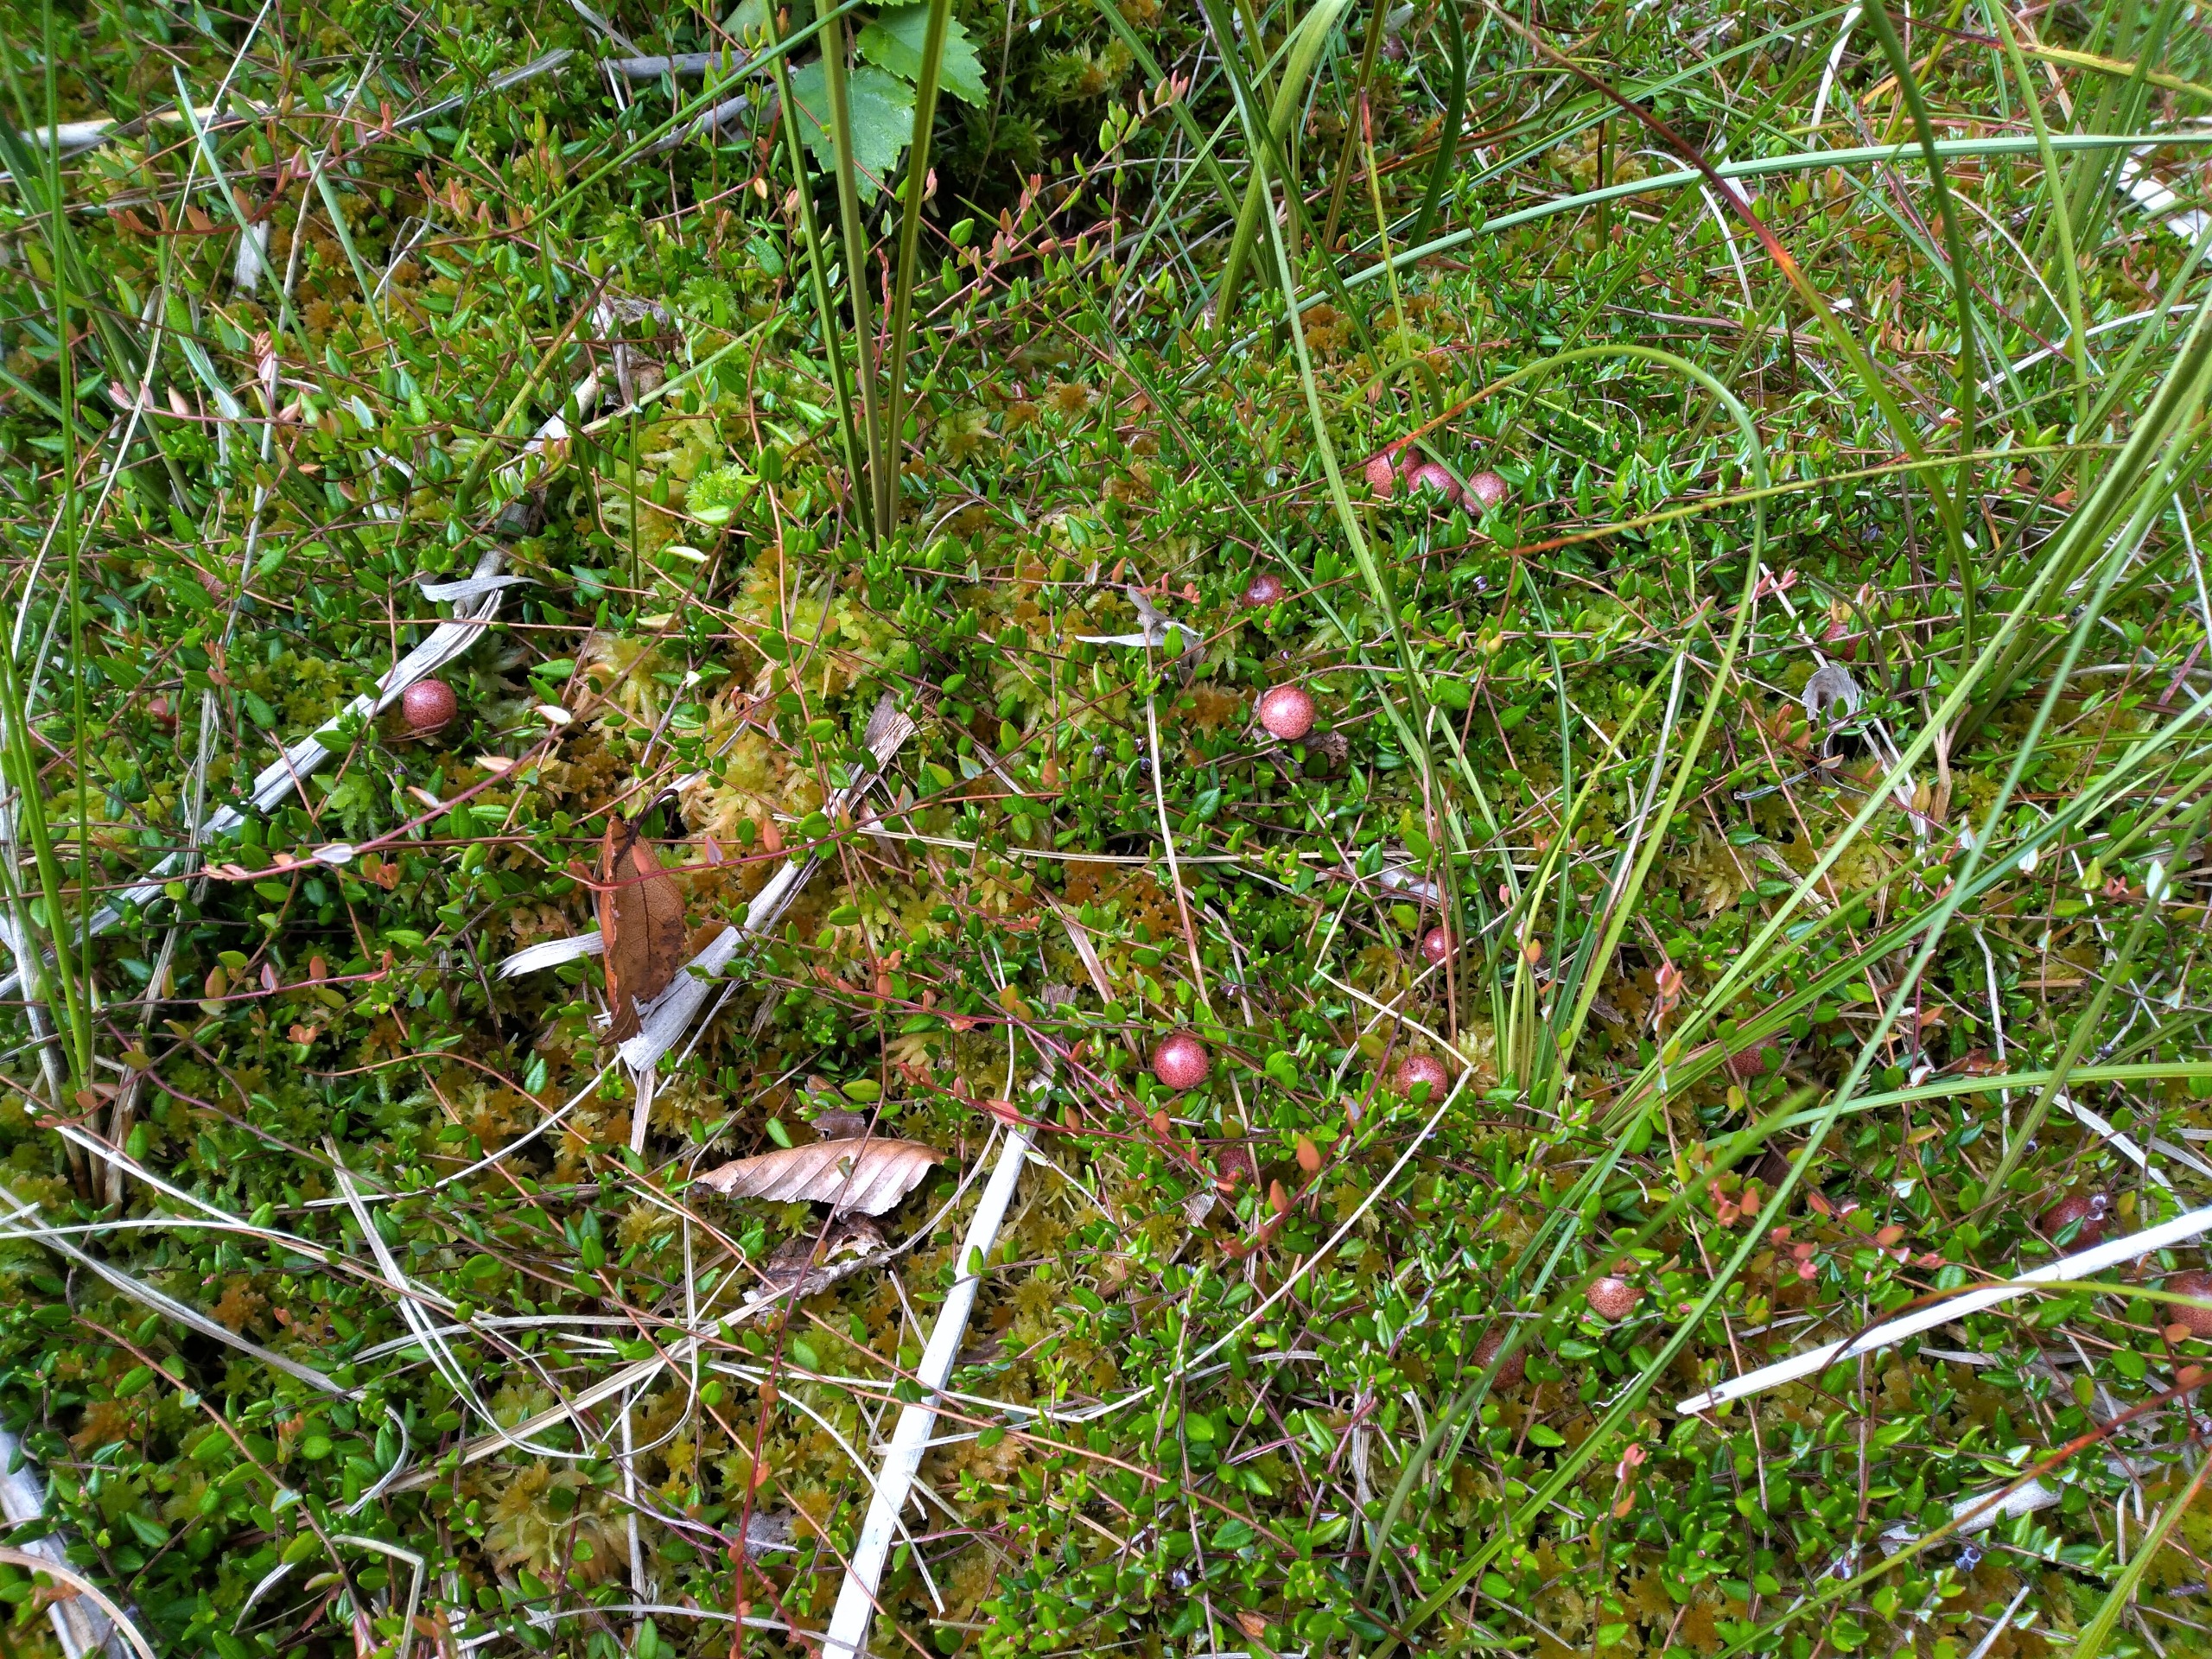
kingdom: Plantae
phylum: Tracheophyta
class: Magnoliopsida
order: Ericales
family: Ericaceae
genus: Vaccinium
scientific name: Vaccinium oxycoccos
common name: Tranebær
